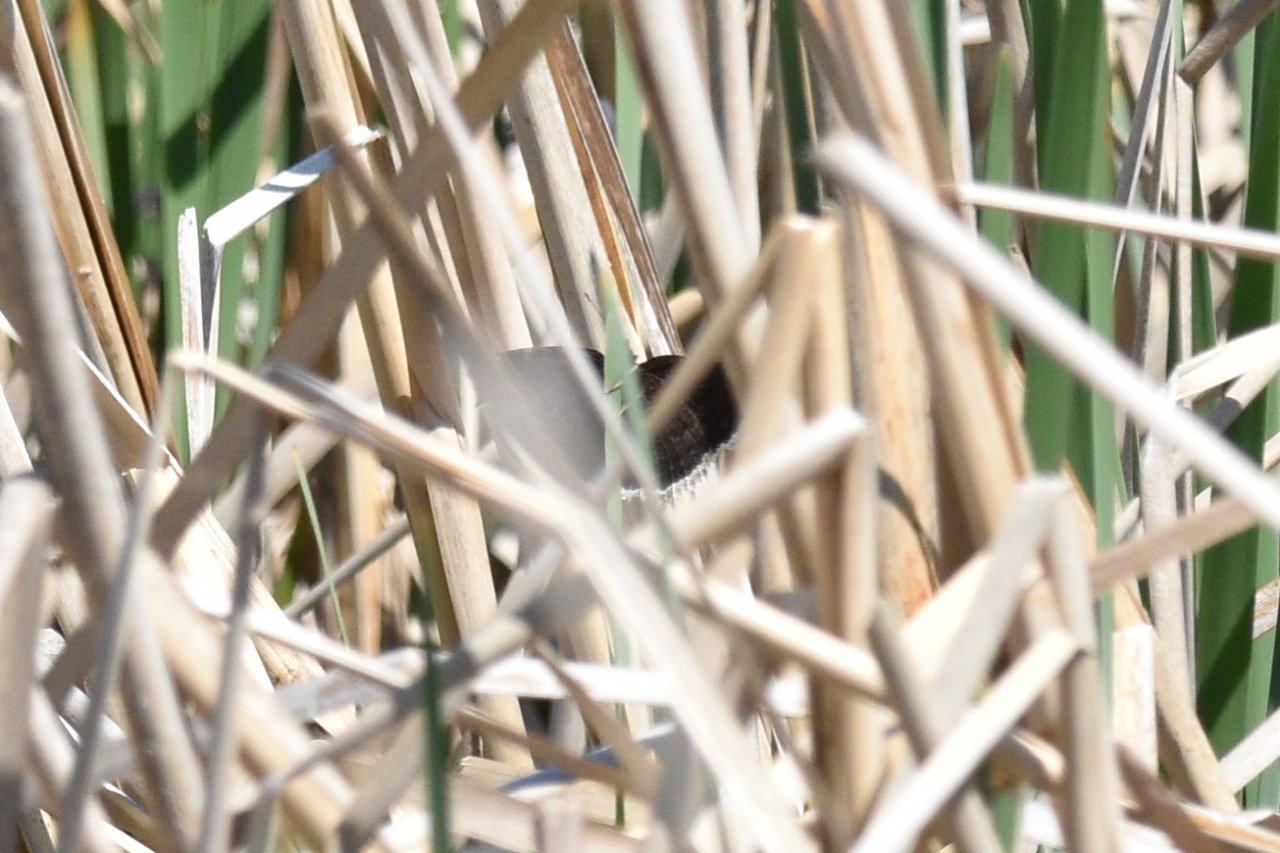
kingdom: Animalia
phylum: Arthropoda
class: Insecta
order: Lepidoptera
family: Nymphalidae
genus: Nymphalis
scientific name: Nymphalis antiopa
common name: Mourning Cloak
